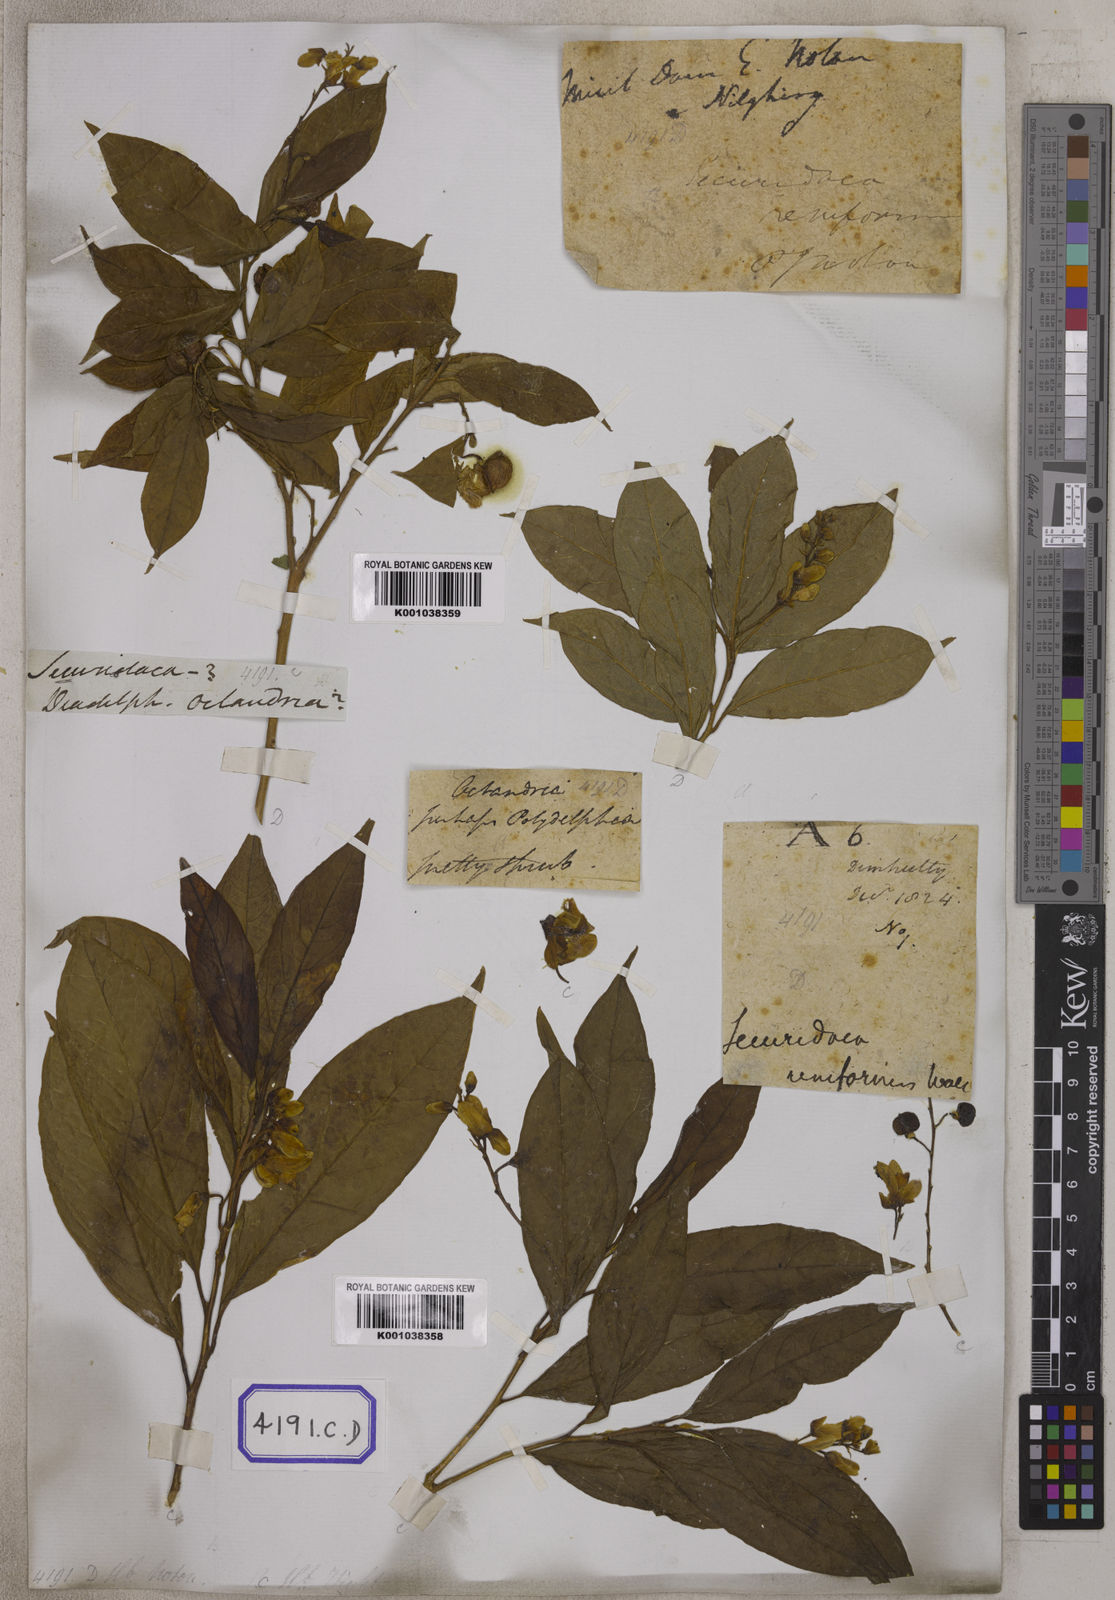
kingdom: Plantae
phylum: Tracheophyta
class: Magnoliopsida
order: Fabales
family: Polygalaceae
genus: Polygala
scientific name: Polygala arillata
